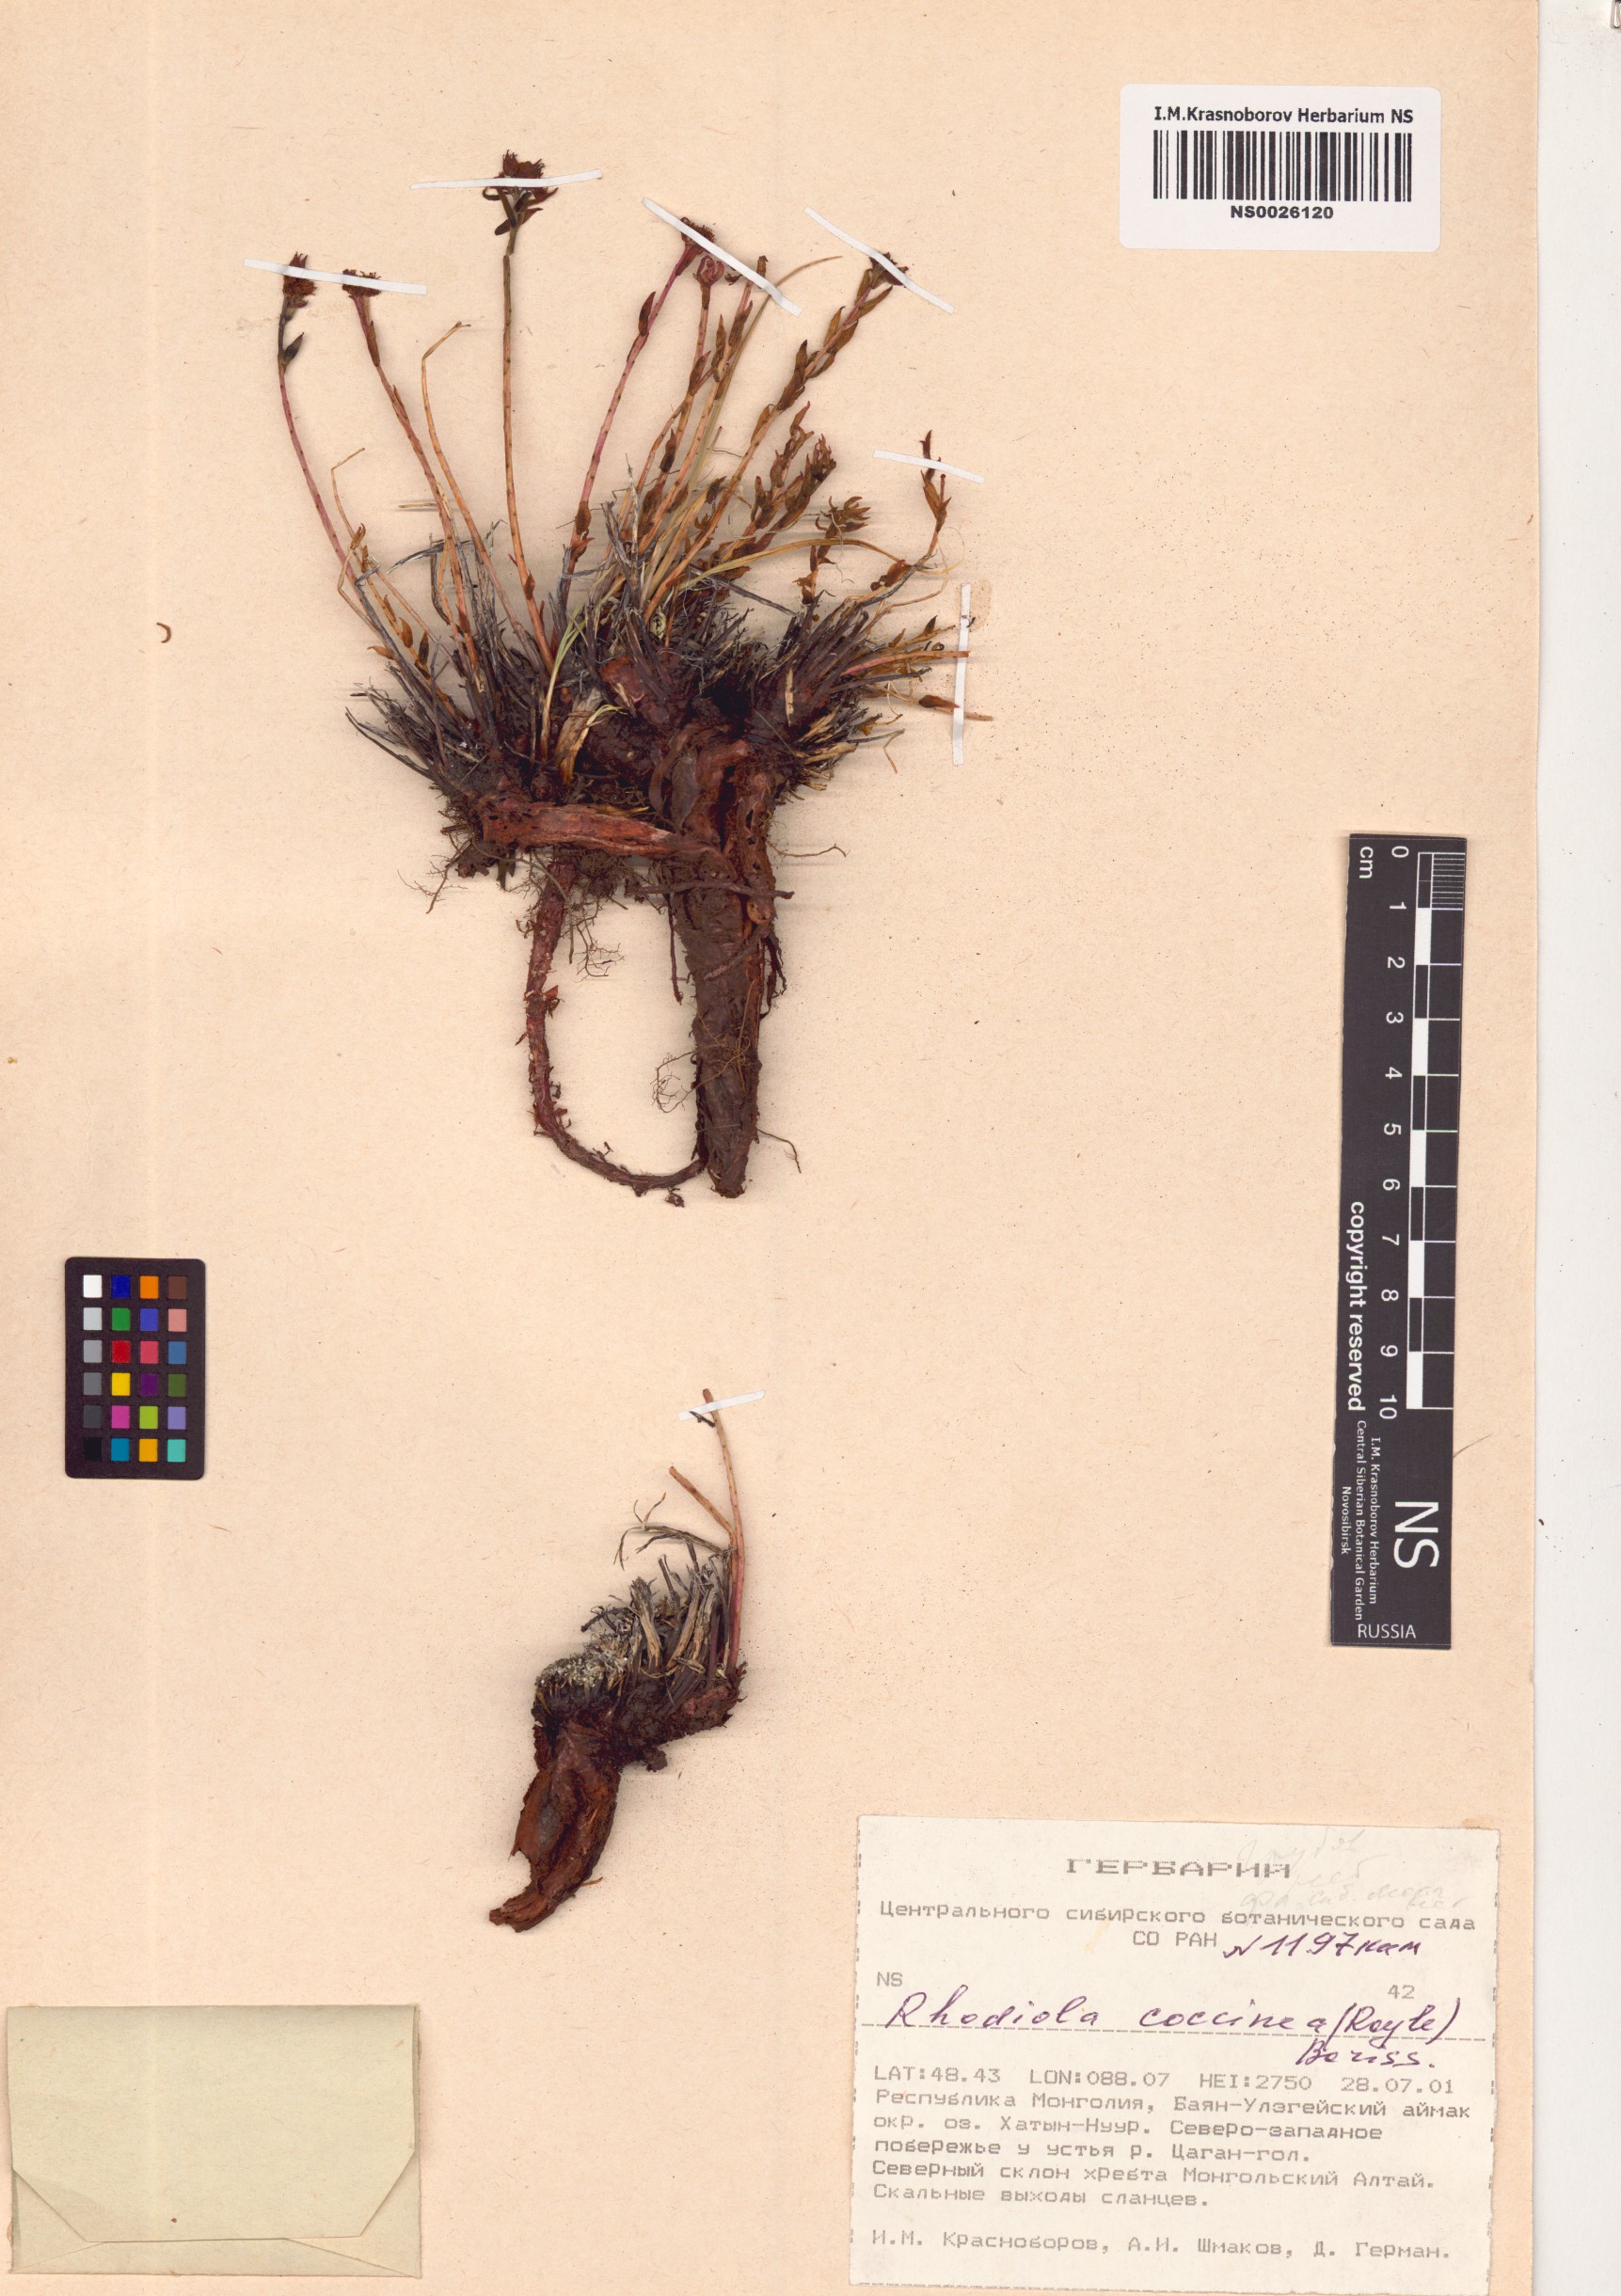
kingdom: Plantae
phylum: Tracheophyta
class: Magnoliopsida
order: Saxifragales
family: Crassulaceae
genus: Rhodiola
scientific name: Rhodiola coccinea
